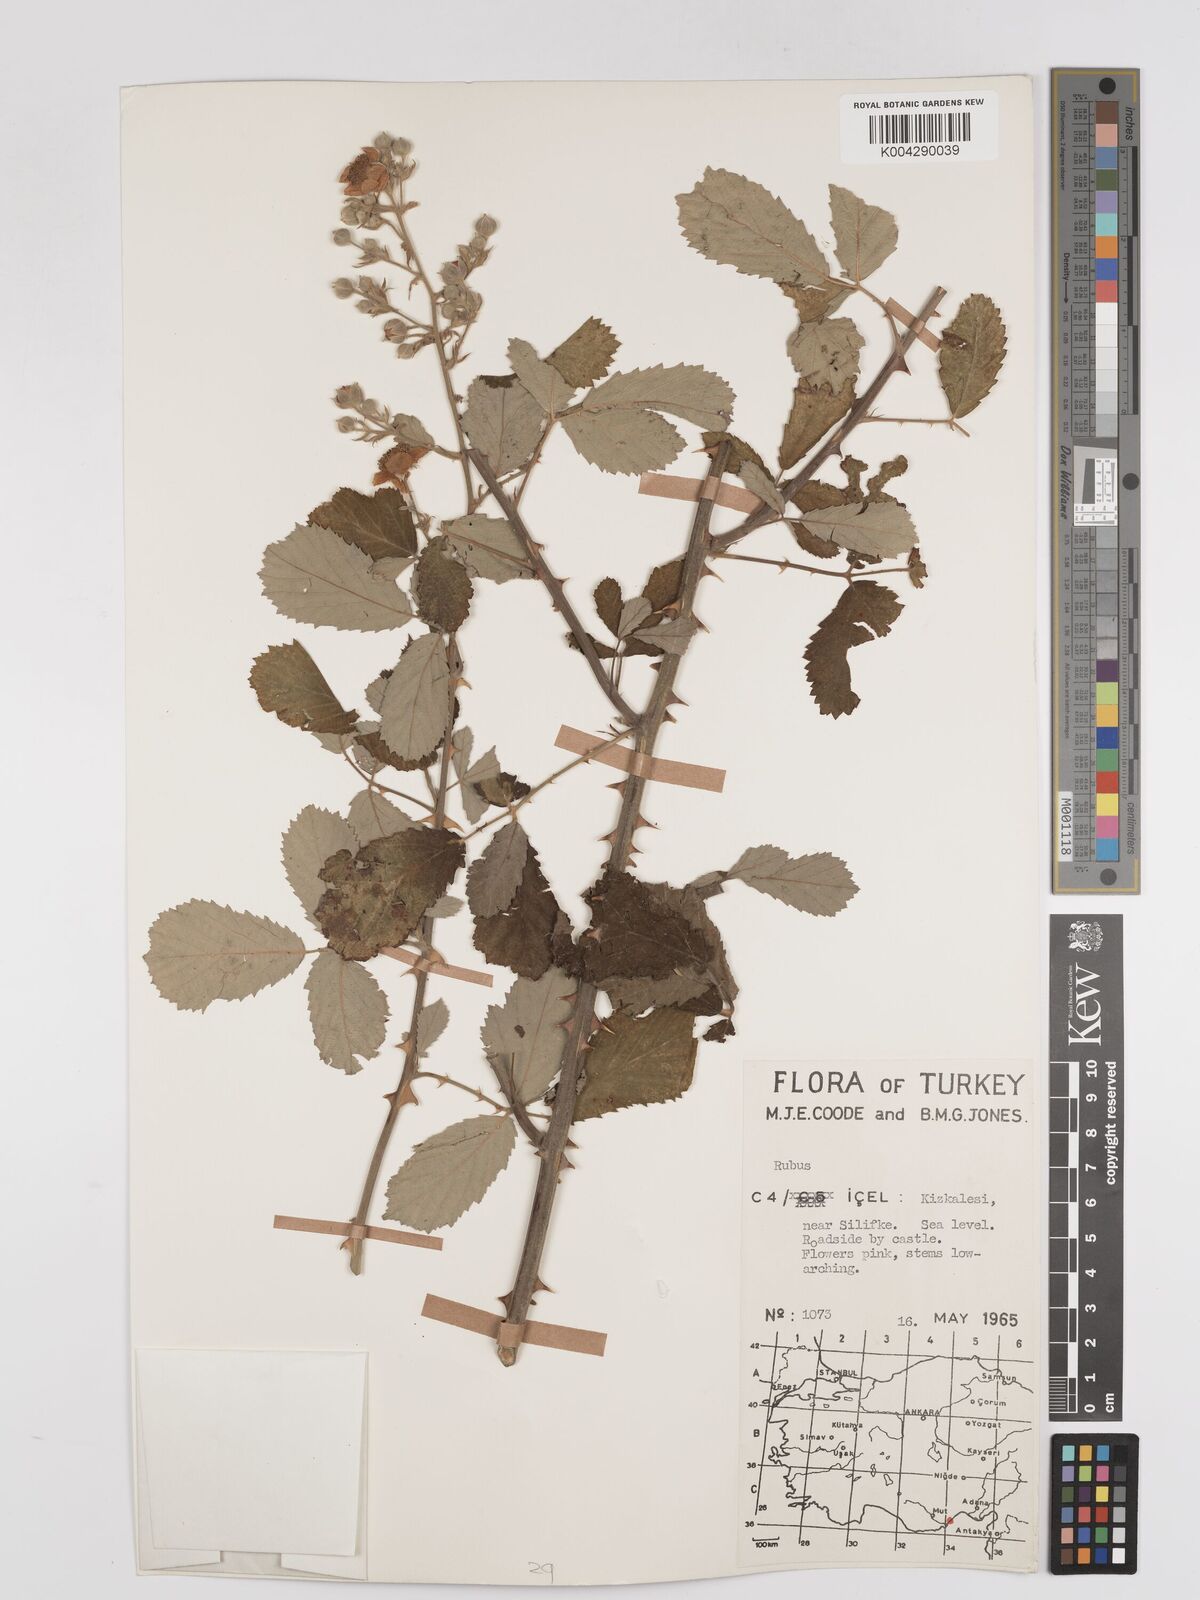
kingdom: Plantae
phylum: Tracheophyta
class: Magnoliopsida
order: Rosales
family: Rosaceae
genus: Rubus
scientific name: Rubus sanctus
